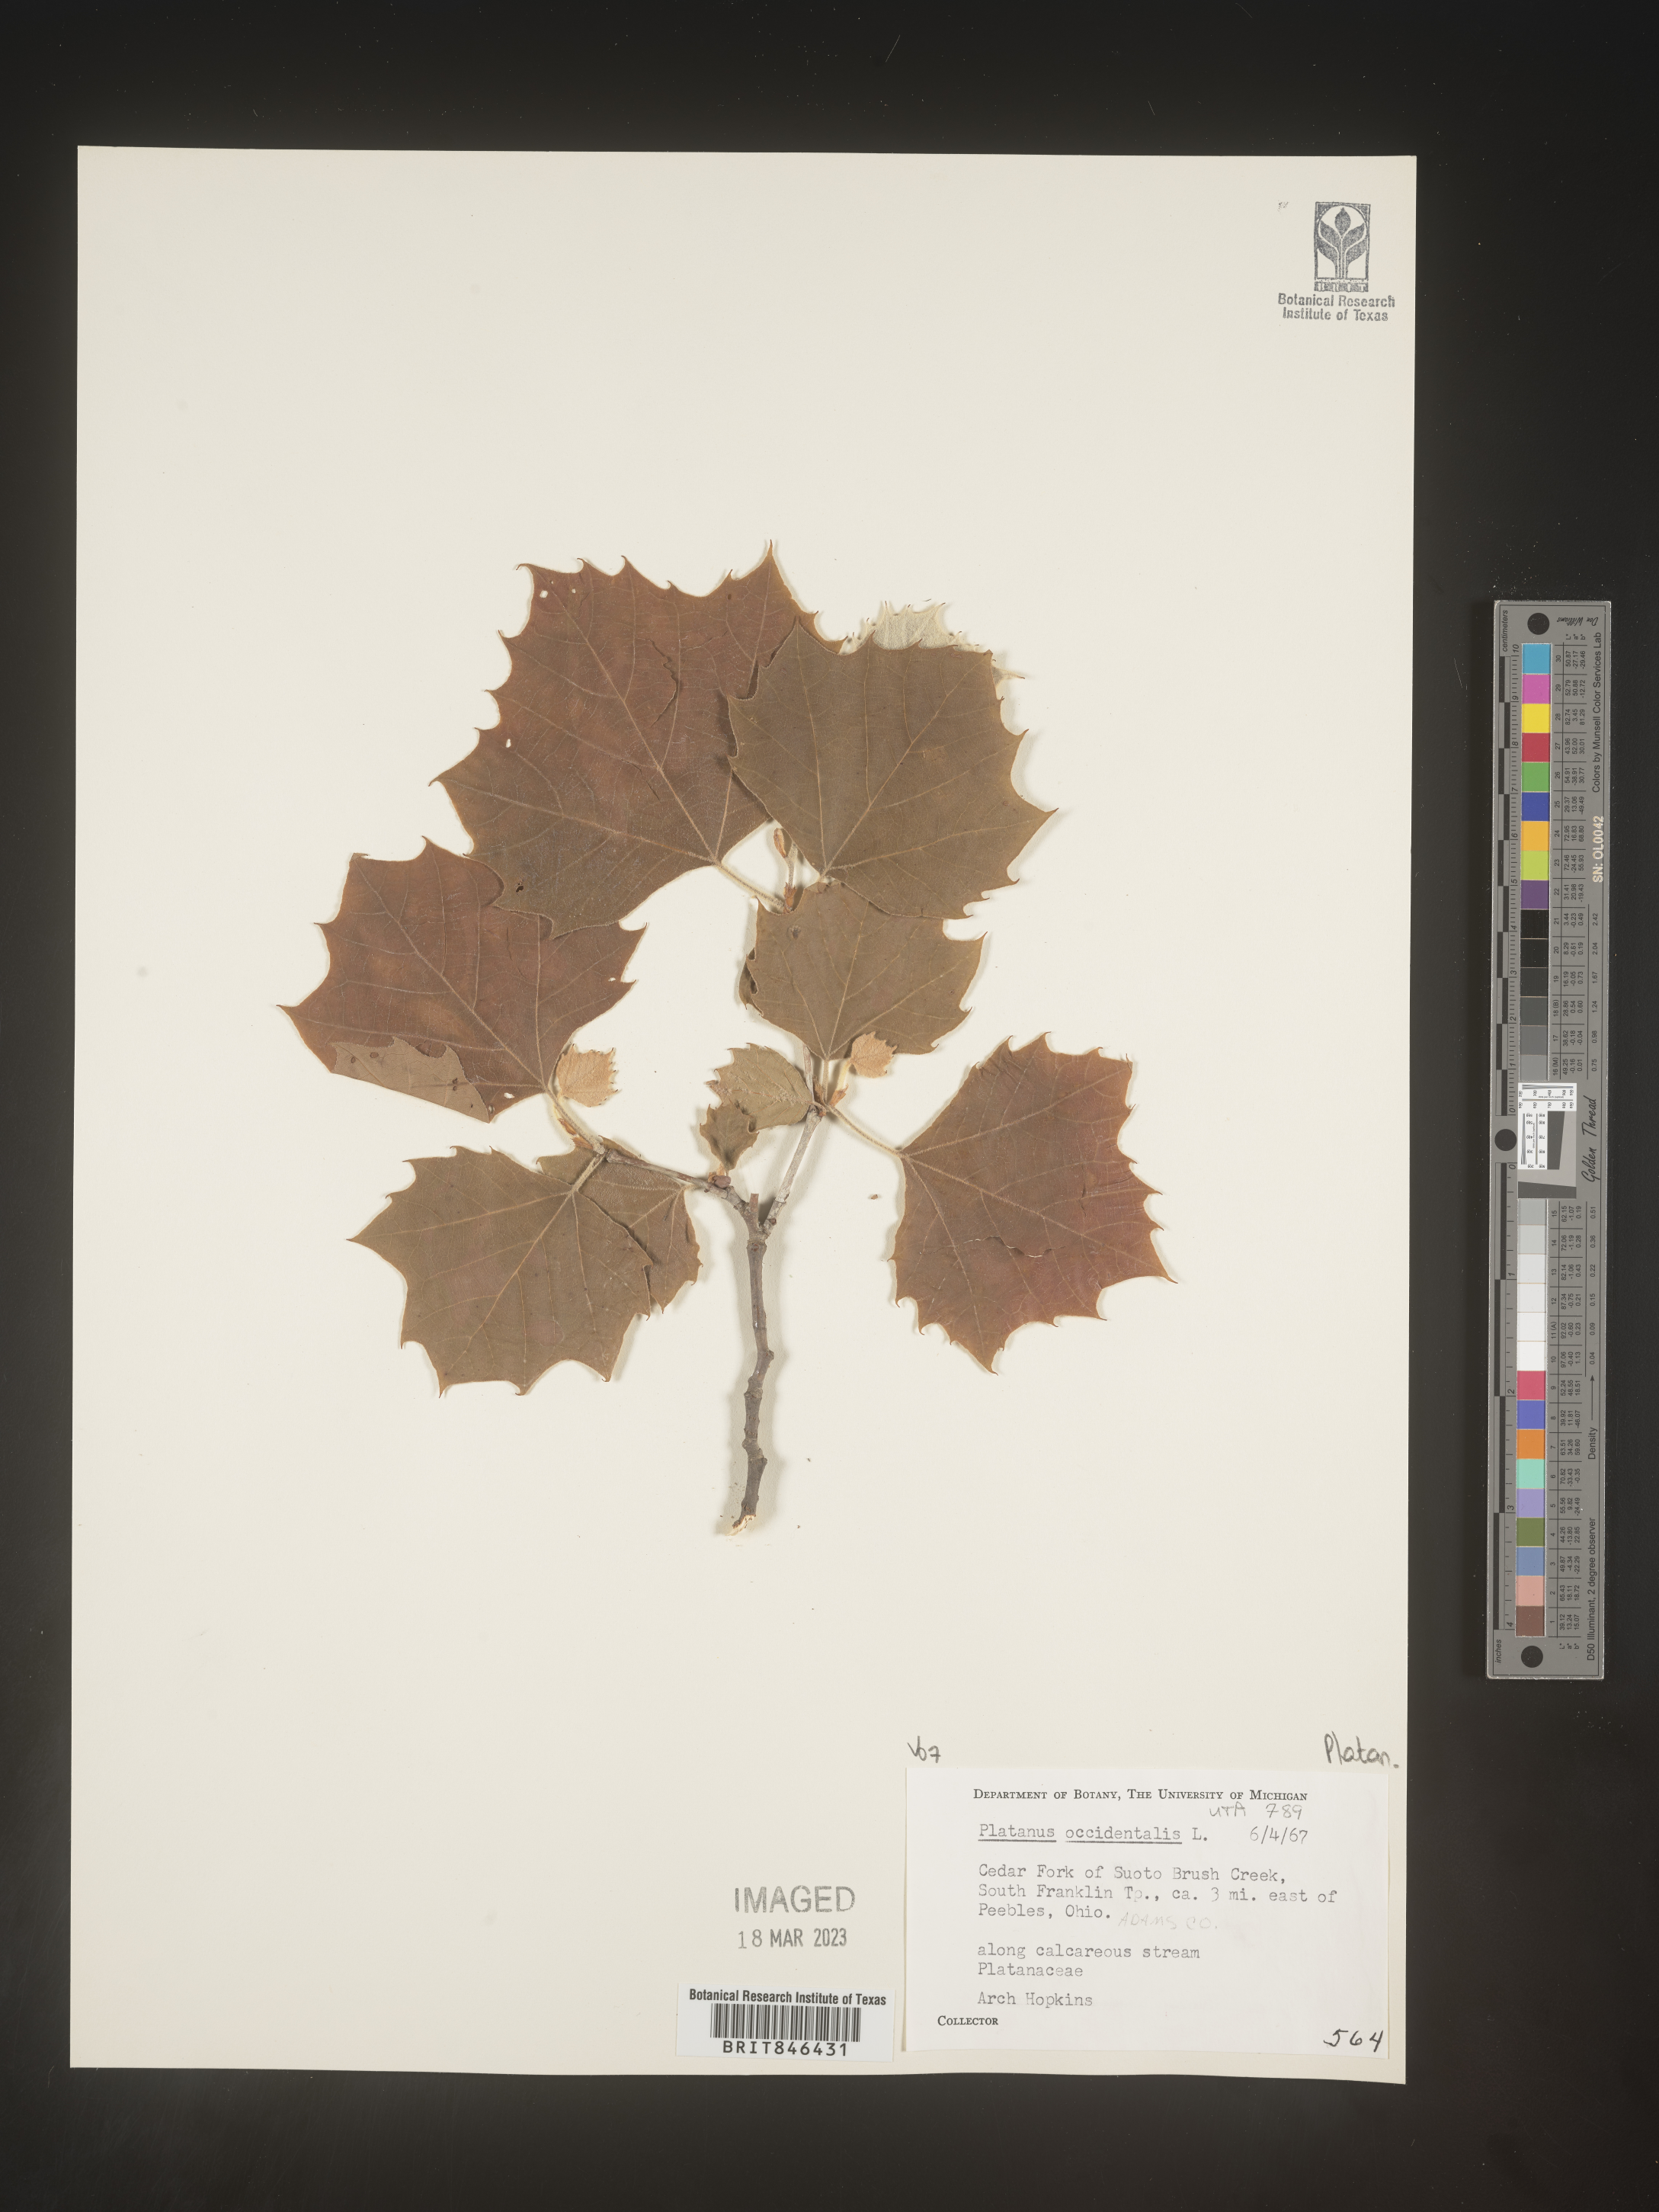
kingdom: Plantae
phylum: Tracheophyta
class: Magnoliopsida
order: Proteales
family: Platanaceae
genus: Platanus
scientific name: Platanus occidentalis
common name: American sycamore
